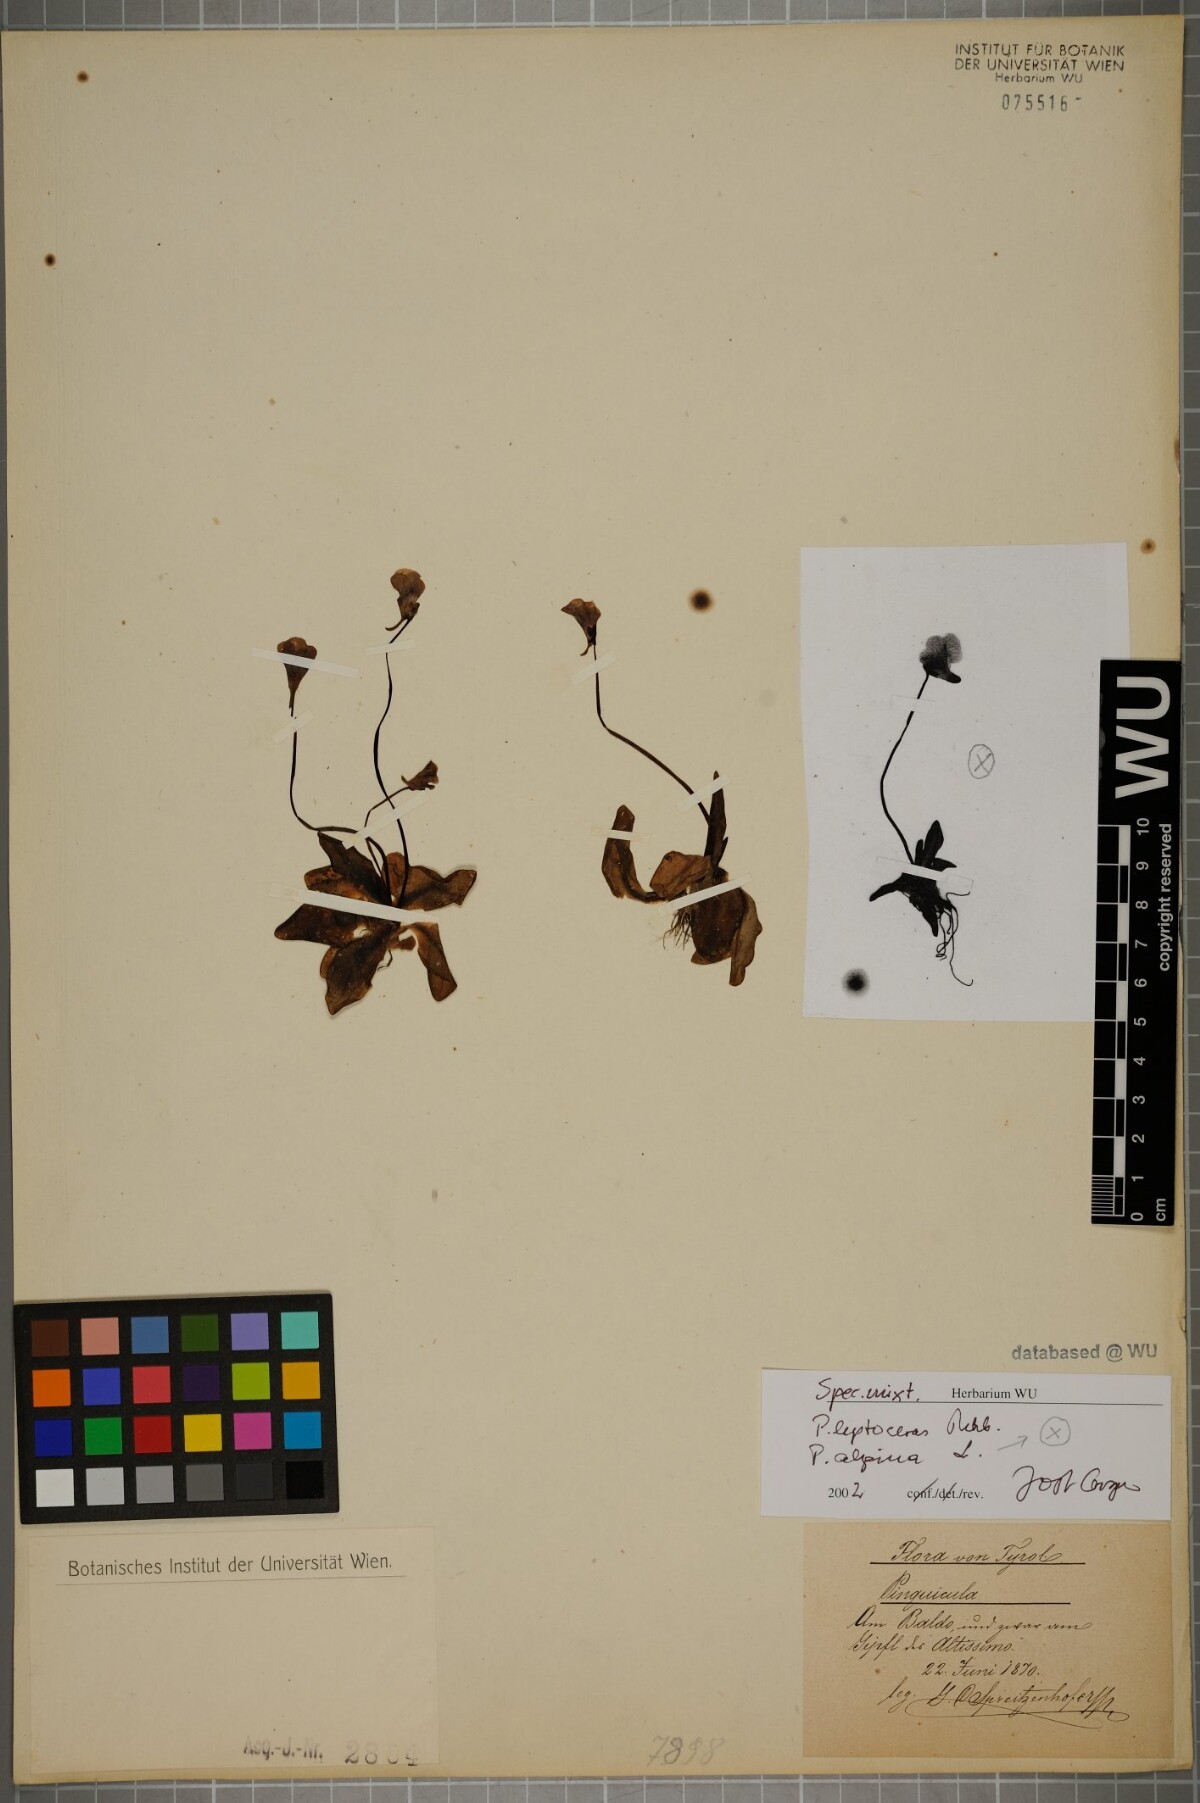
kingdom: Plantae
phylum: Tracheophyta
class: Magnoliopsida
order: Lamiales
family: Lentibulariaceae
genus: Pinguicula
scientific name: Pinguicula leptoceras
